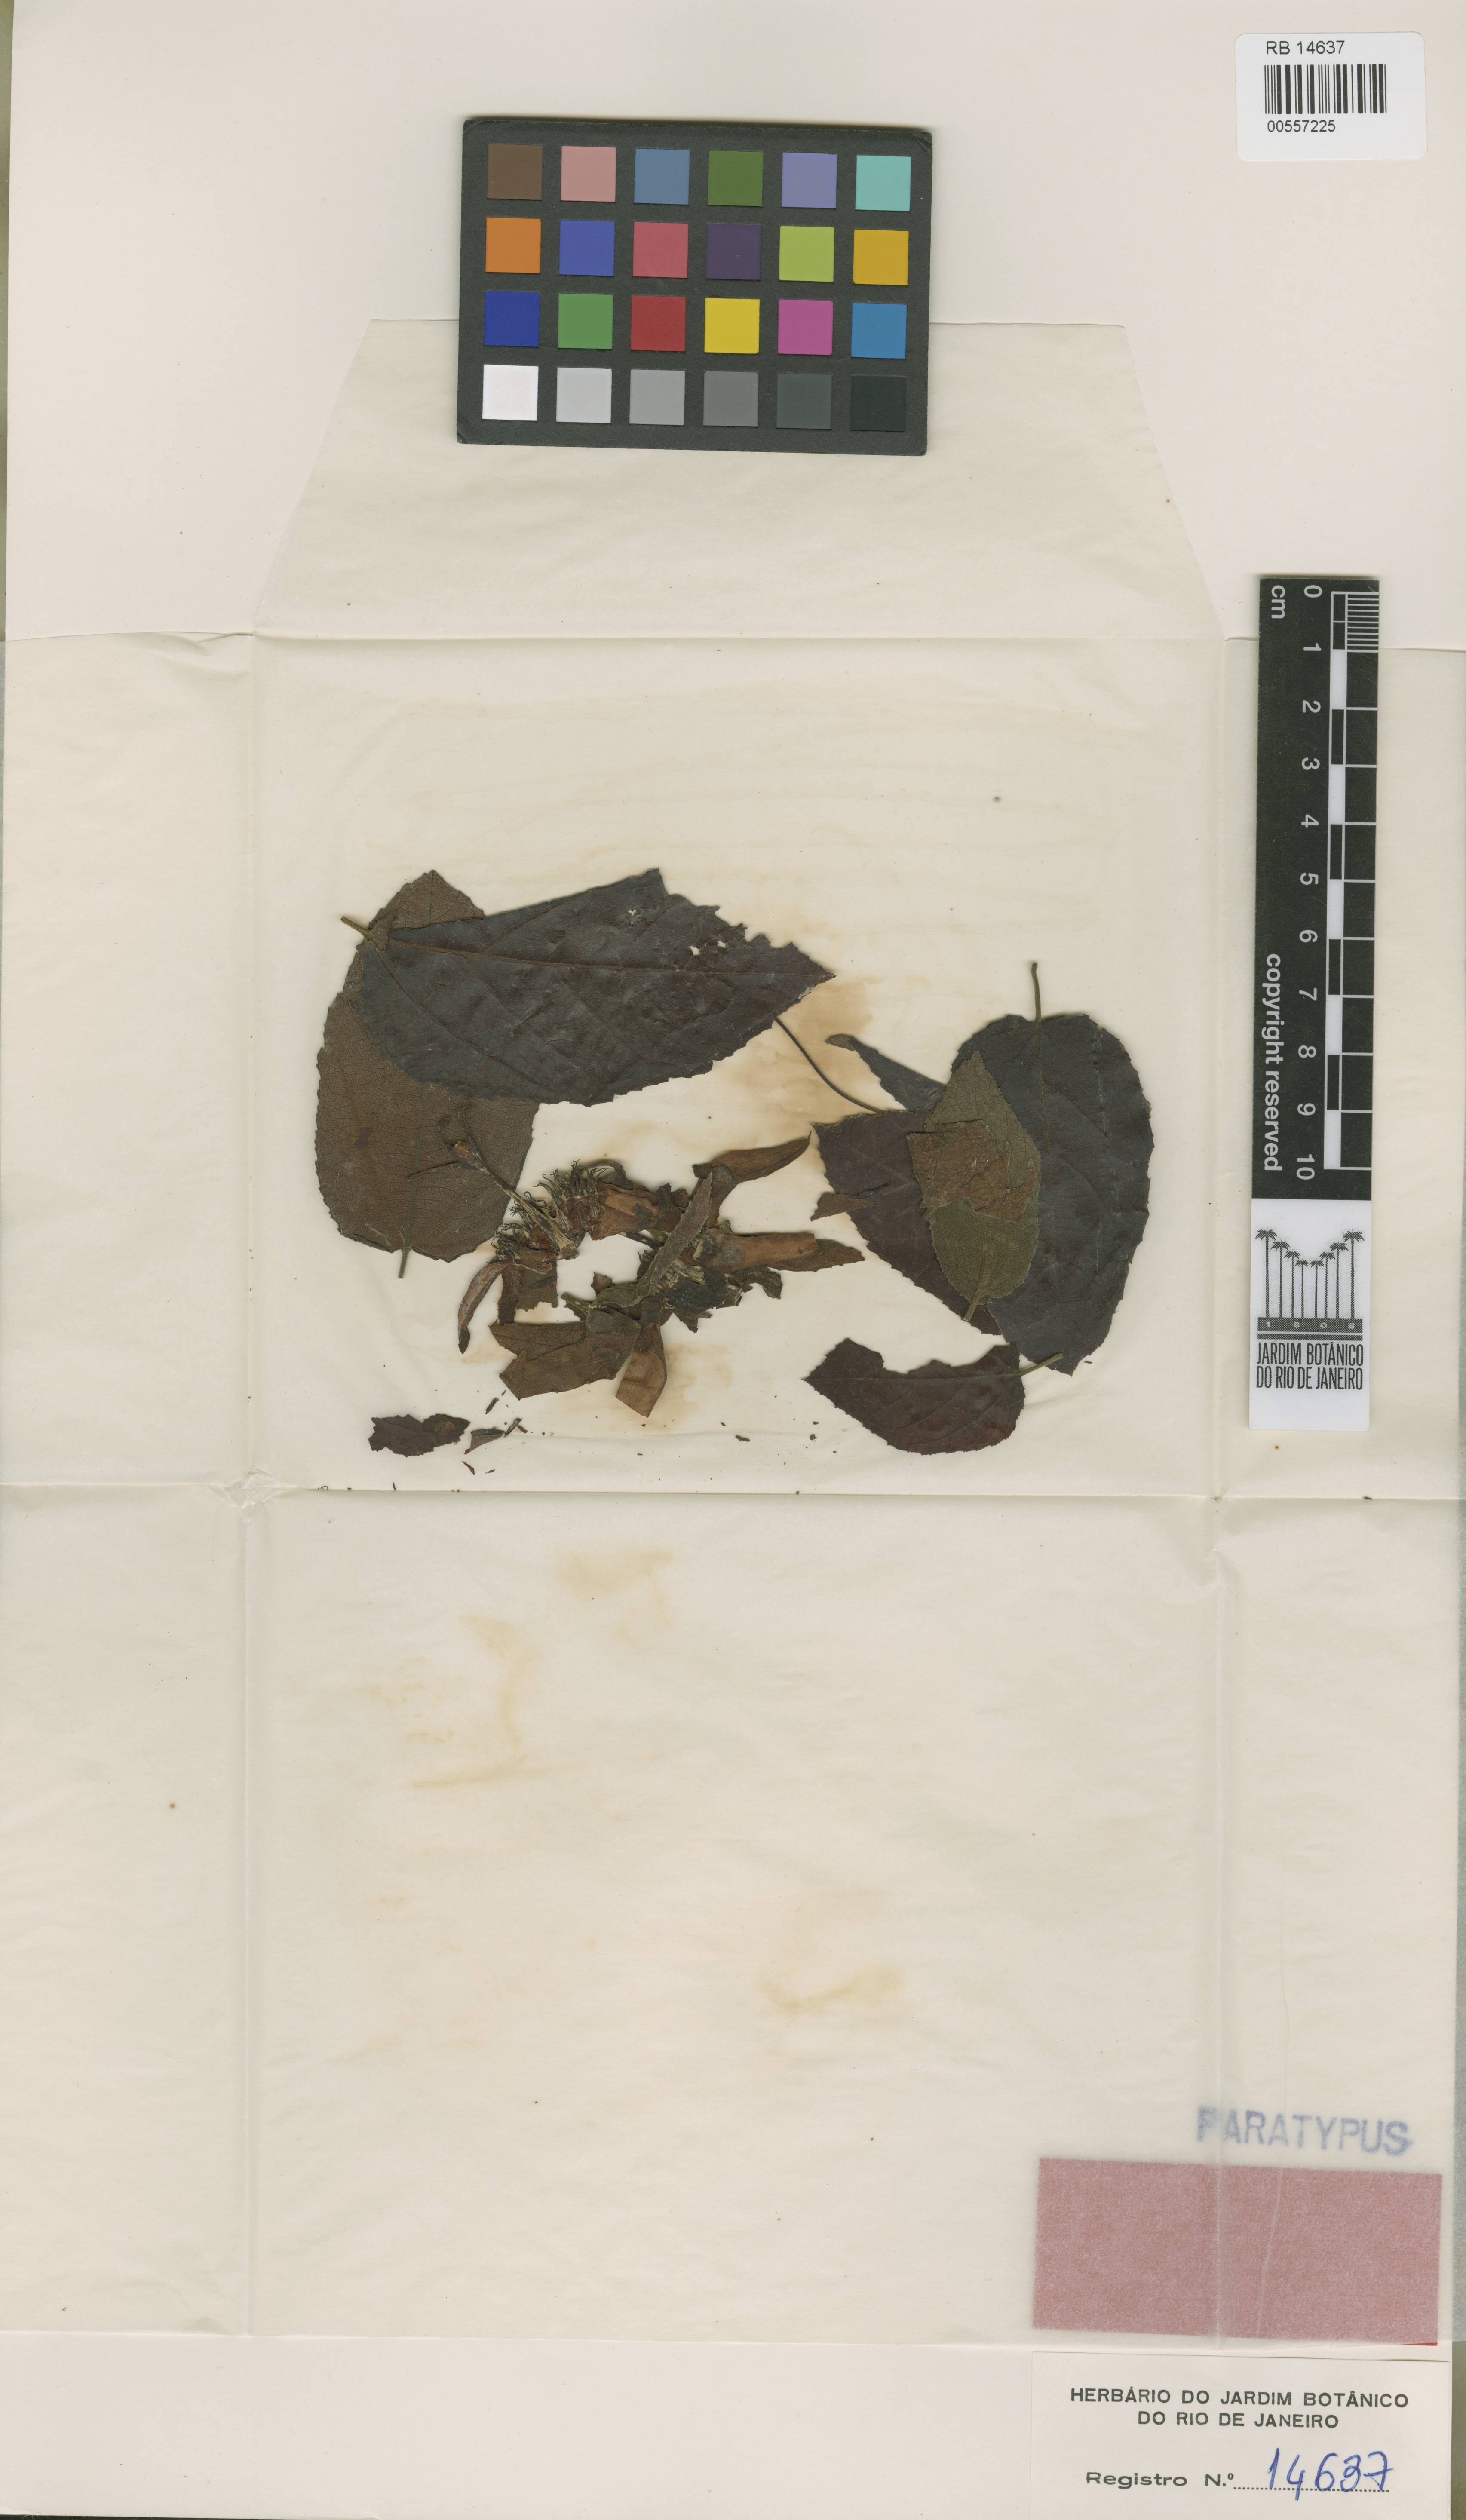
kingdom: Plantae
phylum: Tracheophyta
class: Magnoliopsida
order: Malpighiales
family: Passifloraceae
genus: Passiflora
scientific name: Passiflora araujoi
